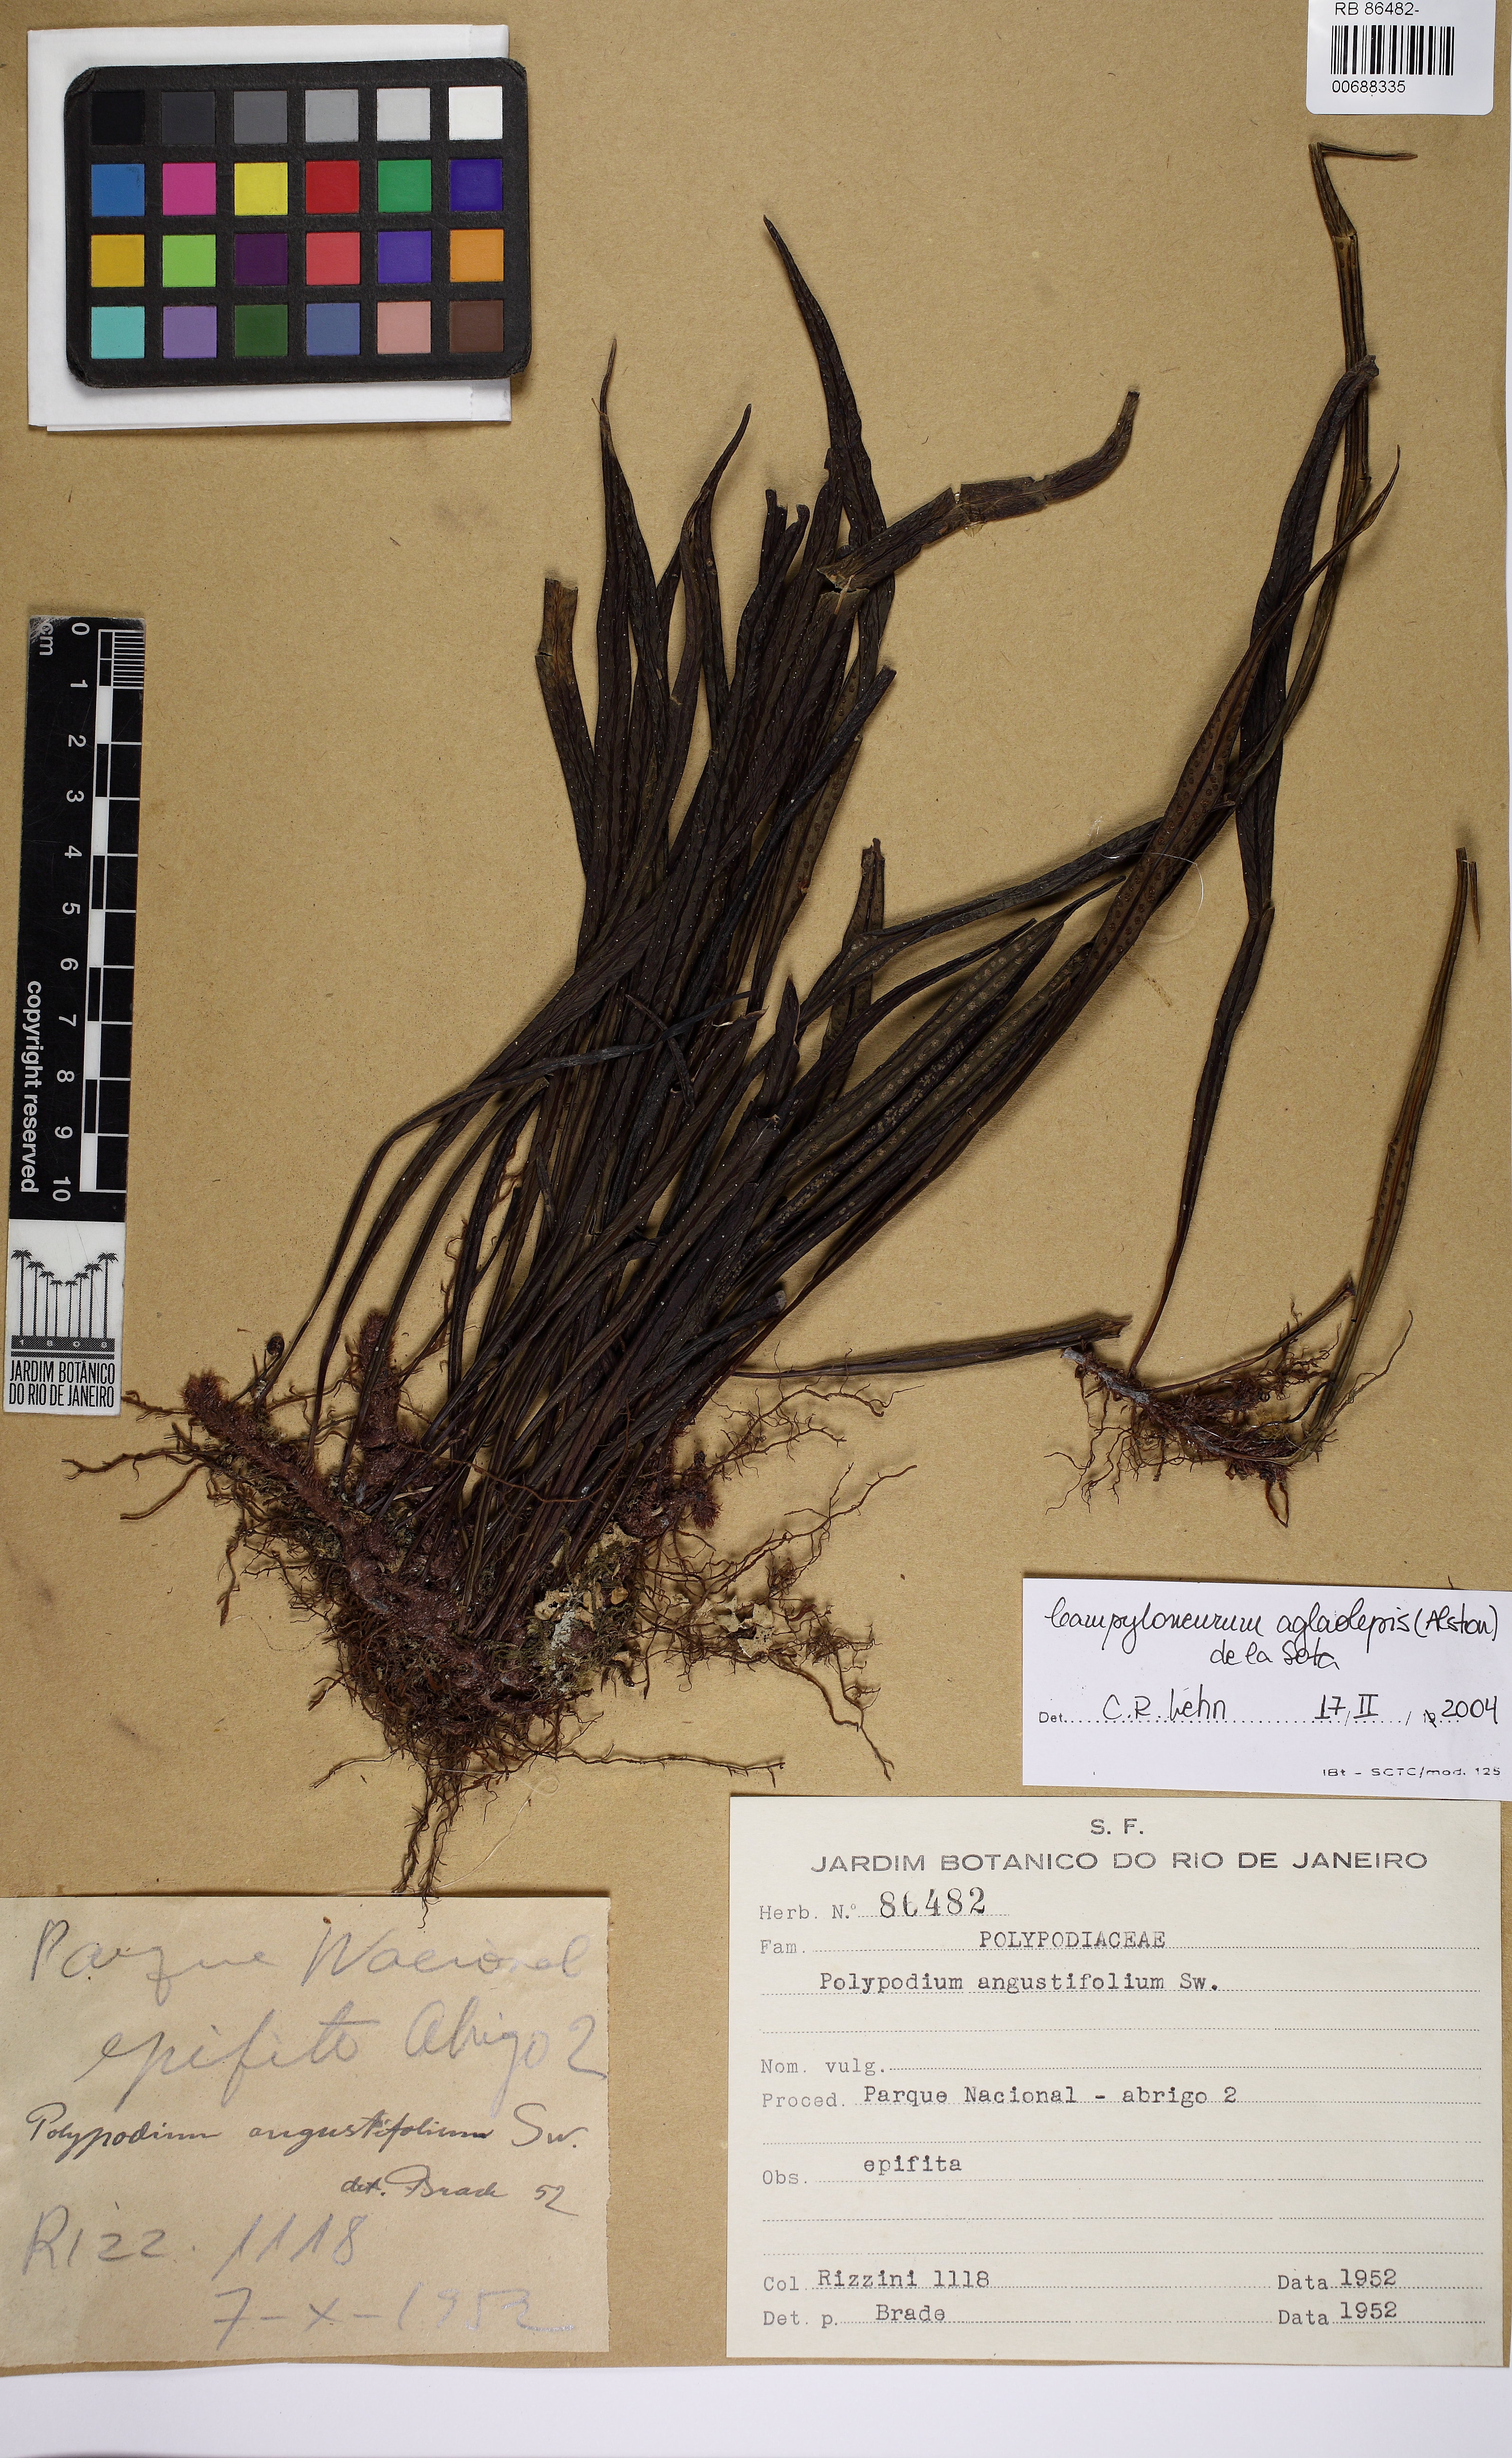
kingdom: Plantae
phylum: Tracheophyta
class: Polypodiopsida
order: Polypodiales
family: Polypodiaceae
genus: Campyloneurum
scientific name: Campyloneurum aglaolepis
